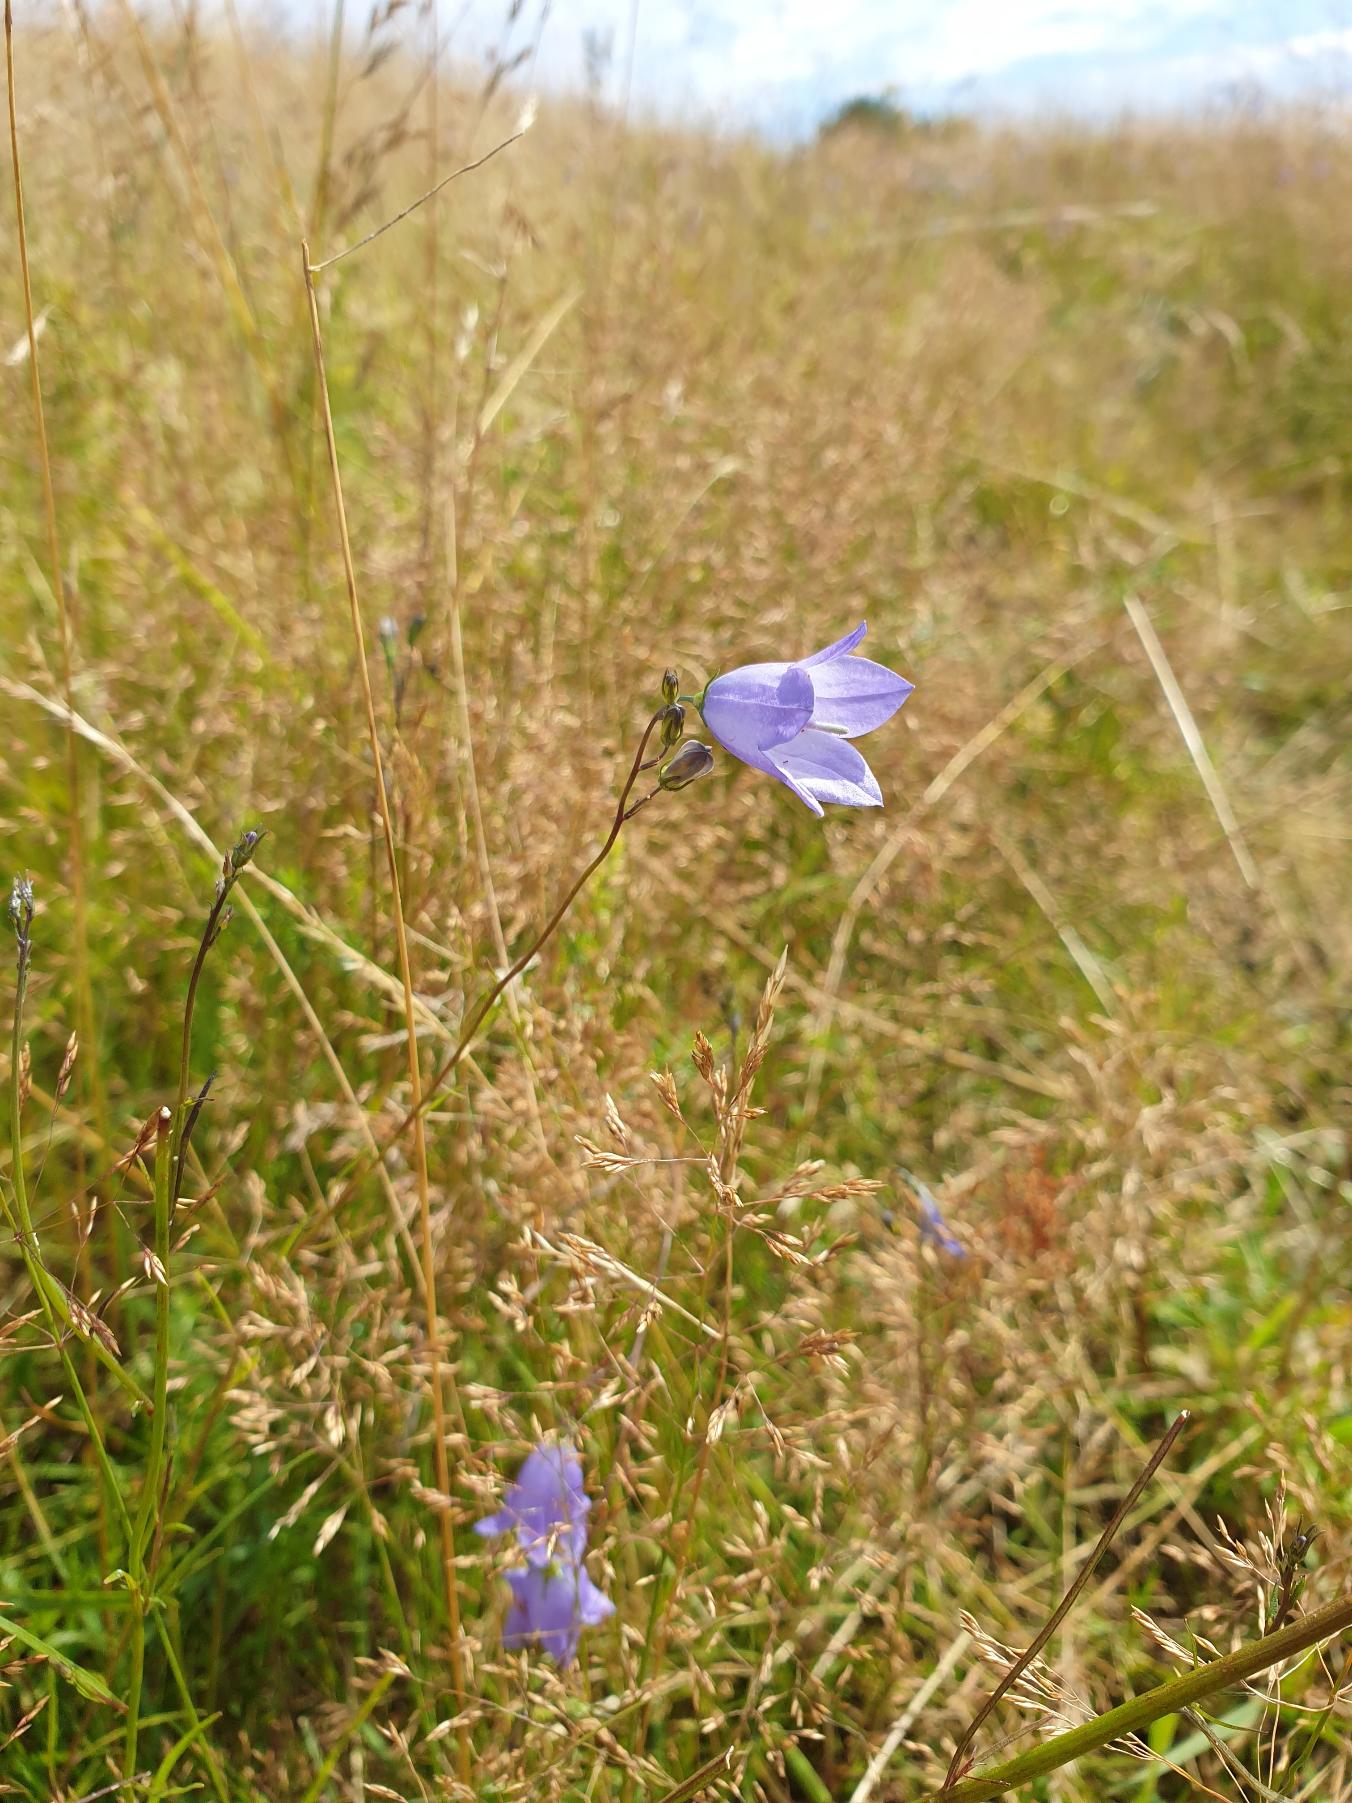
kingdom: Plantae
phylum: Tracheophyta
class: Magnoliopsida
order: Asterales
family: Campanulaceae
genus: Campanula
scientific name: Campanula rotundifolia
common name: Liden klokke
